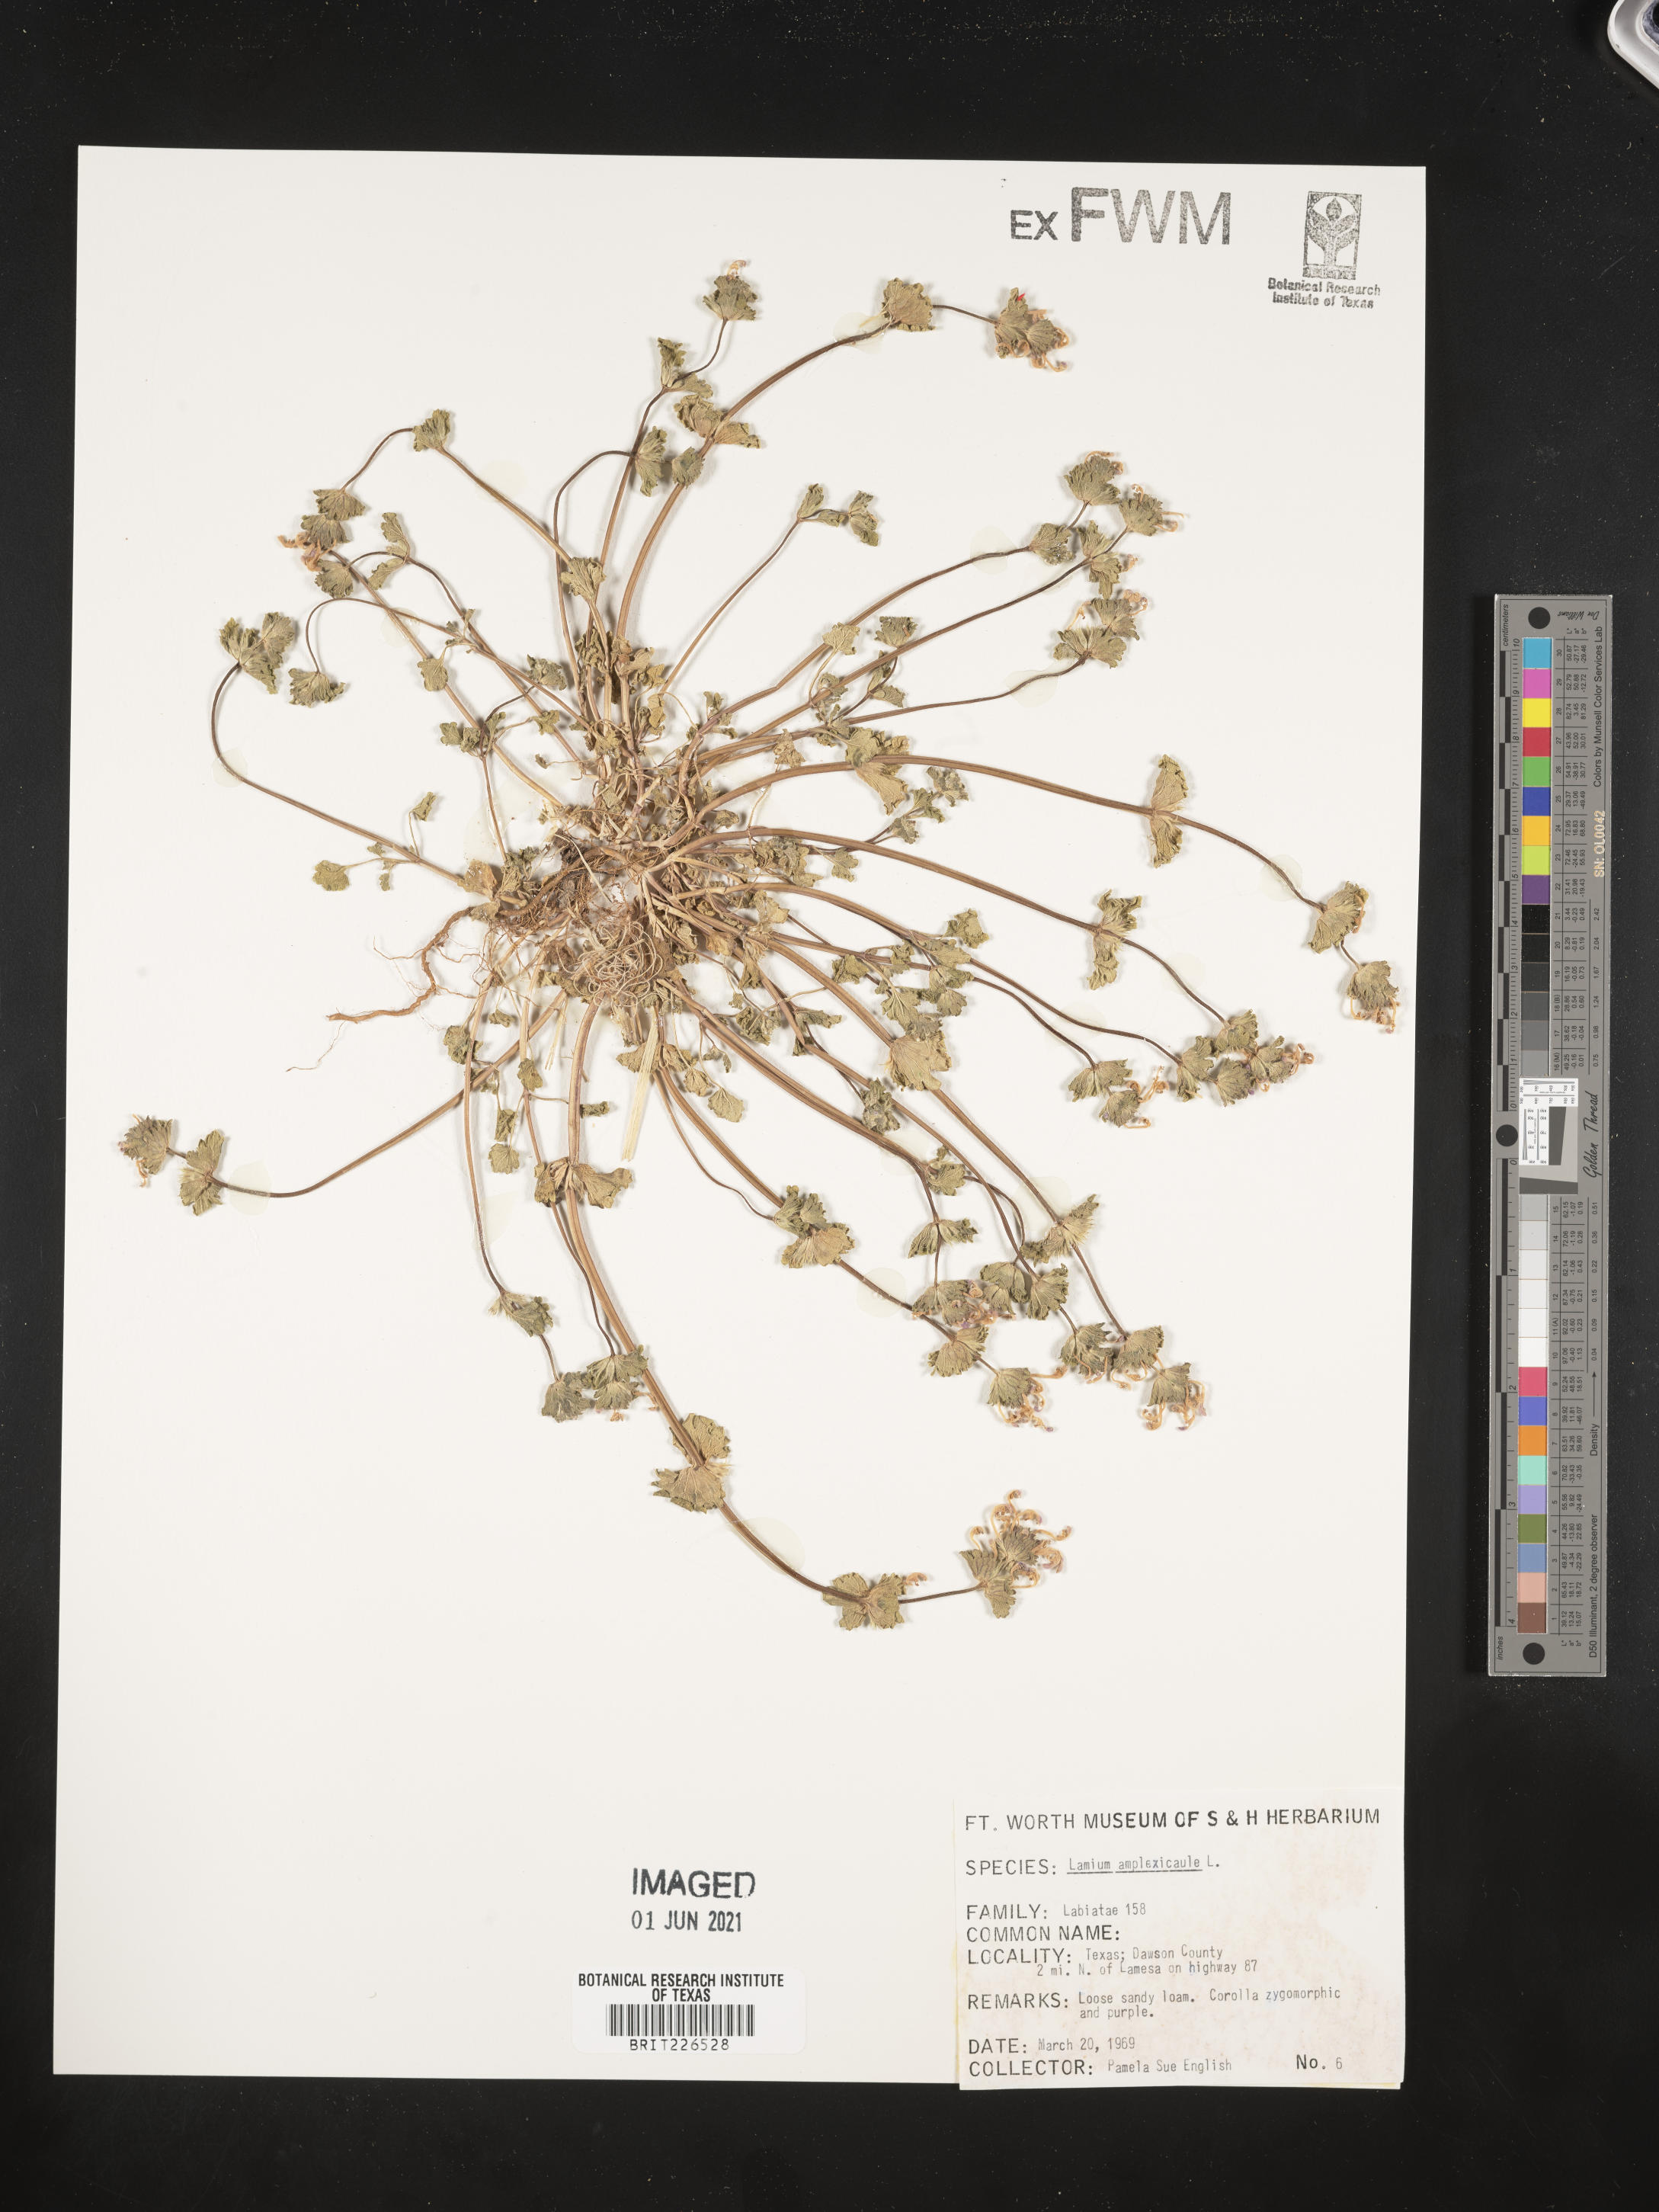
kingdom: Plantae
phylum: Tracheophyta
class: Magnoliopsida
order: Lamiales
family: Lamiaceae
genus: Lamium
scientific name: Lamium amplexicaule
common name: Henbit dead-nettle
